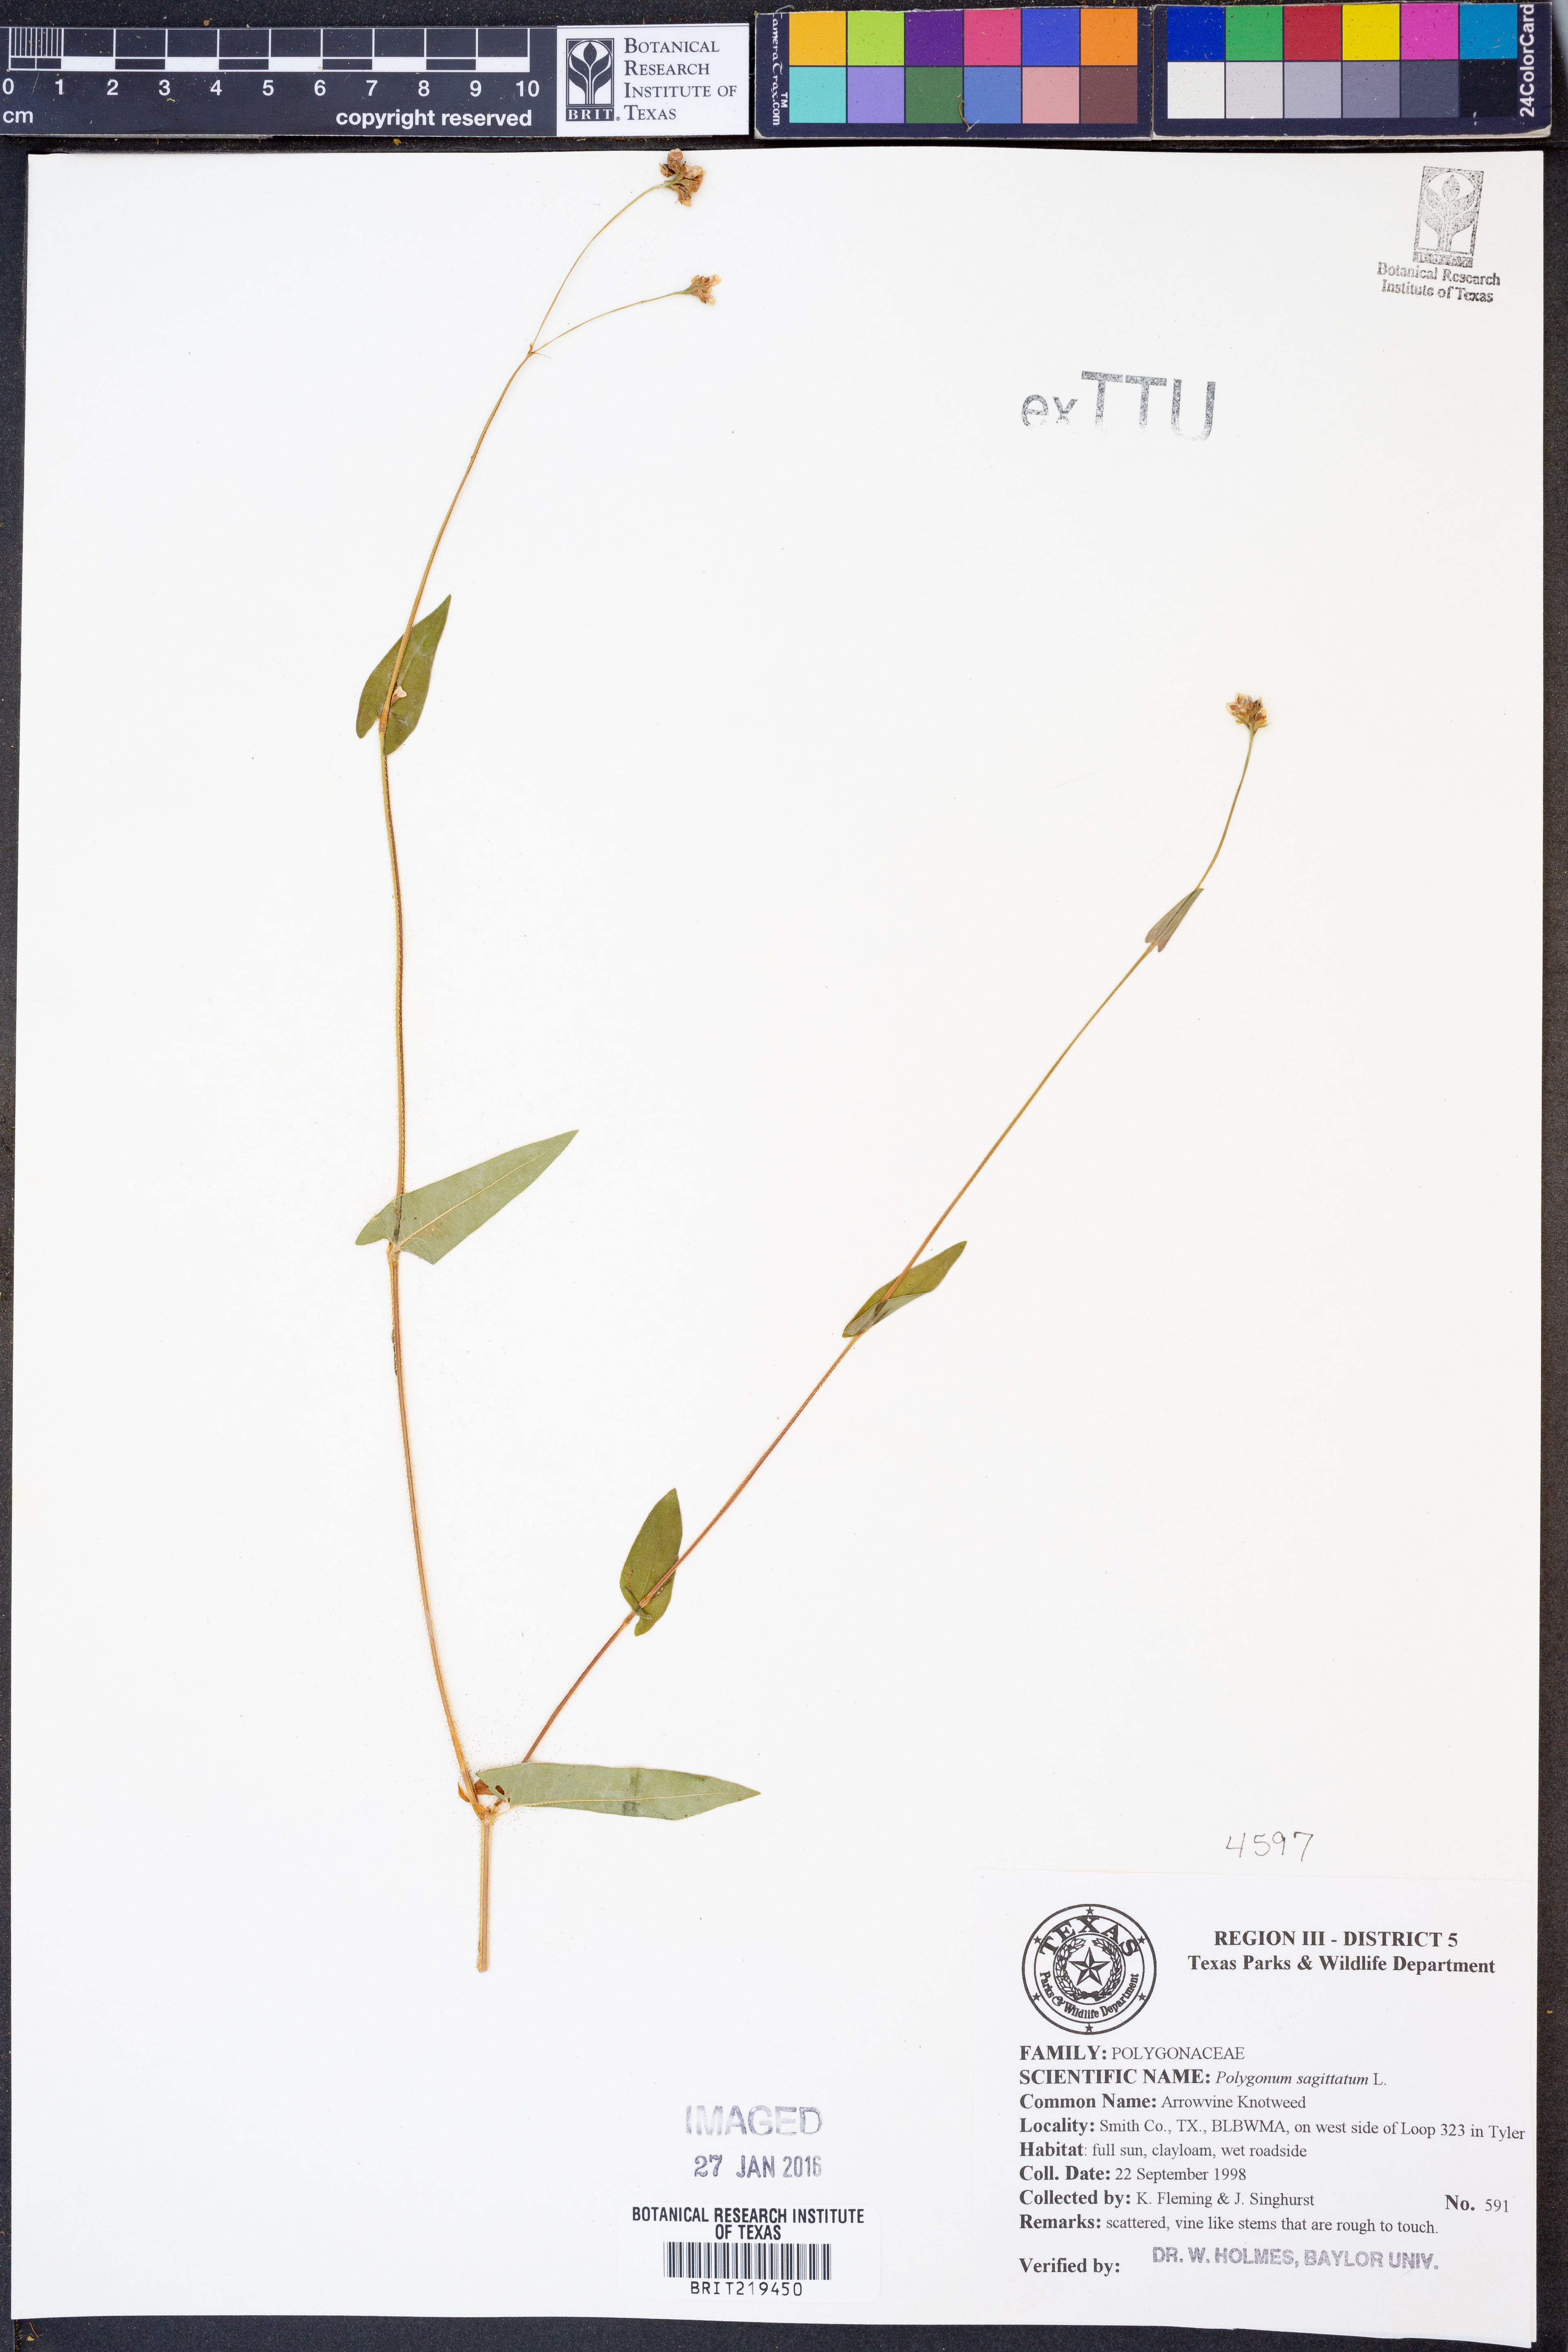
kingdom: Plantae
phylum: Tracheophyta
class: Magnoliopsida
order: Caryophyllales
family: Polygonaceae
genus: Persicaria
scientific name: Persicaria sagittata
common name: American tearthumb
